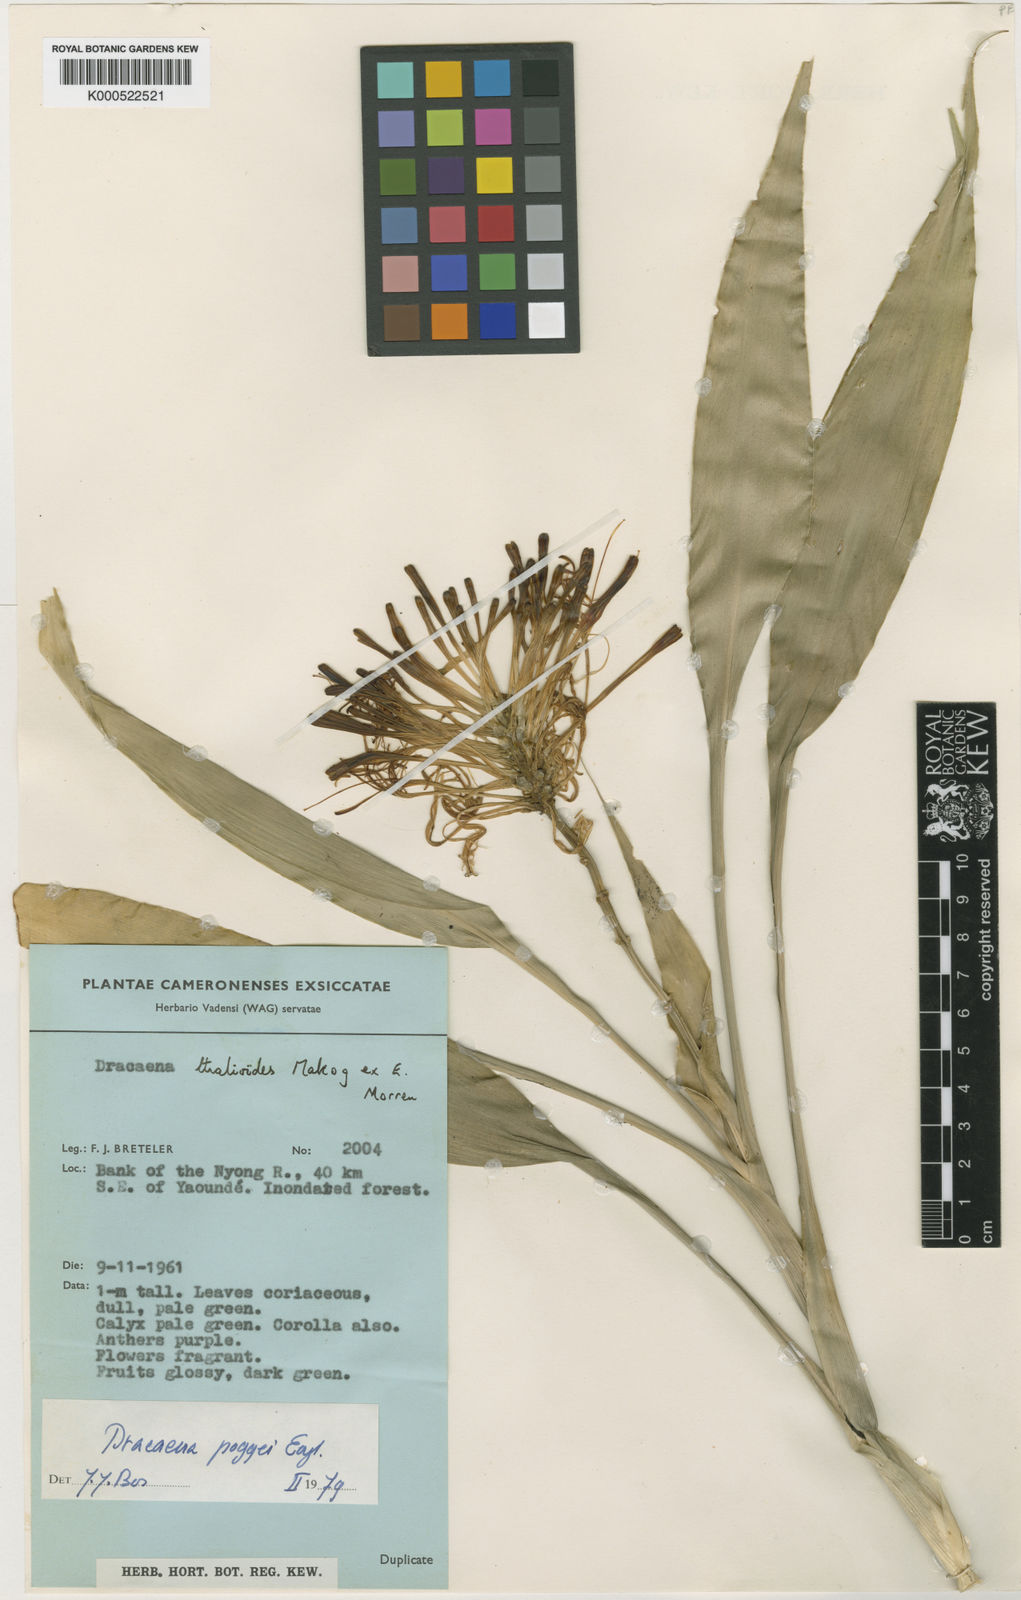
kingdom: Plantae
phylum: Tracheophyta
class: Liliopsida
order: Asparagales
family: Asparagaceae
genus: Dracaena
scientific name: Dracaena sanderiana
